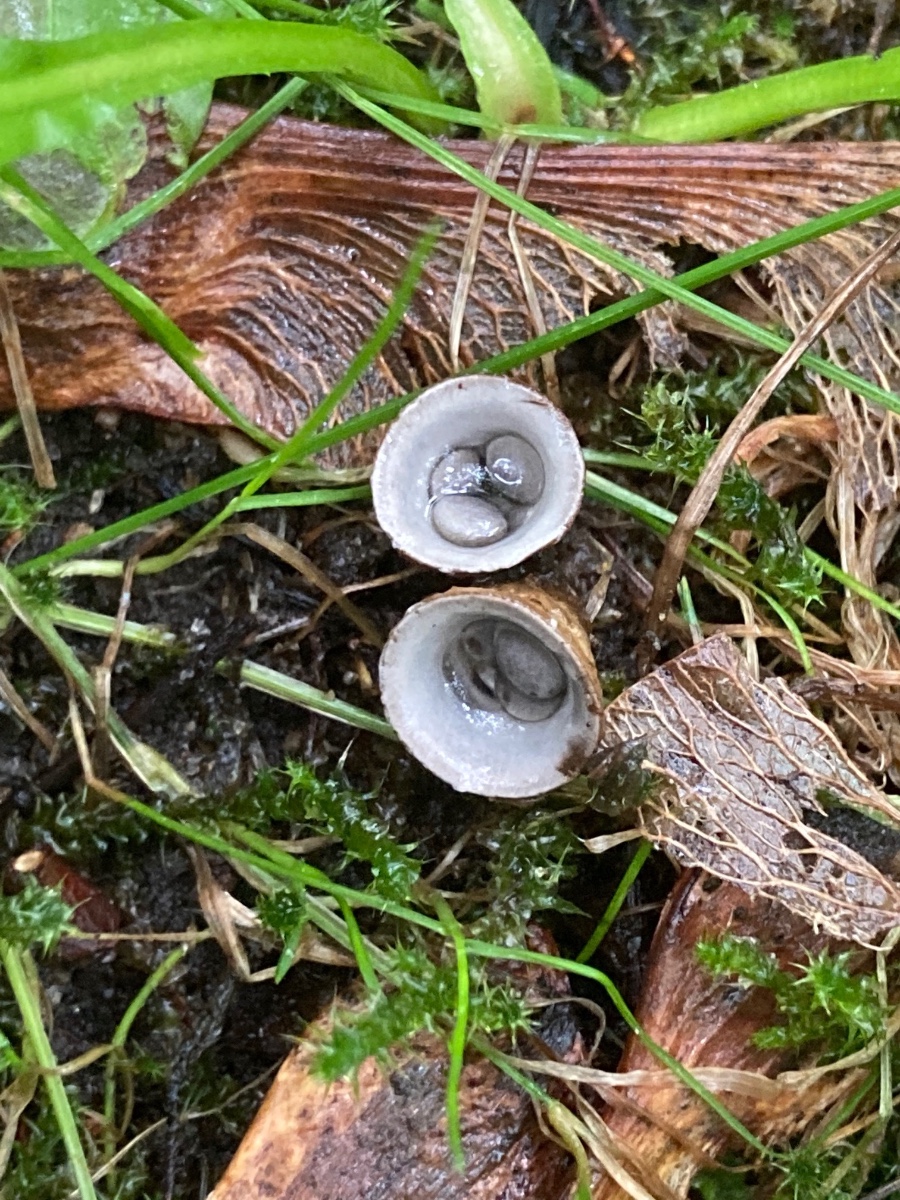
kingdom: Fungi
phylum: Basidiomycota
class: Agaricomycetes
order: Agaricales
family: Agaricaceae
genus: Cyathus
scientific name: Cyathus olla
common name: klokke-redesvamp
